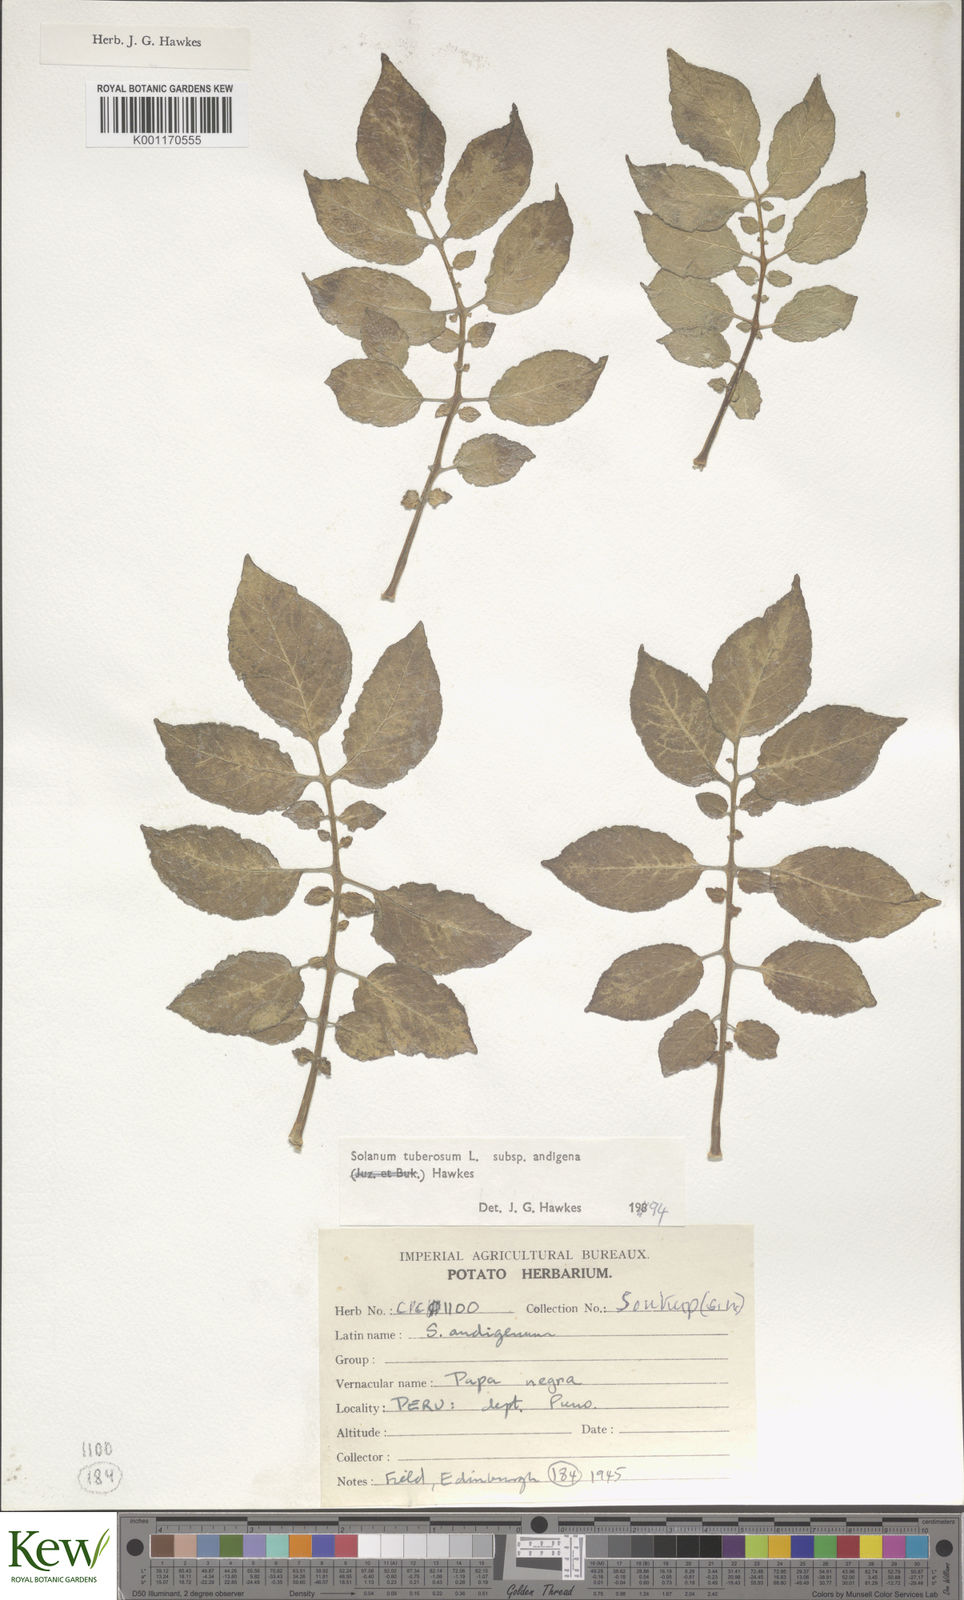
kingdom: Plantae
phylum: Tracheophyta
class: Magnoliopsida
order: Solanales
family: Solanaceae
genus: Solanum
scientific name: Solanum tuberosum
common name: Potato
